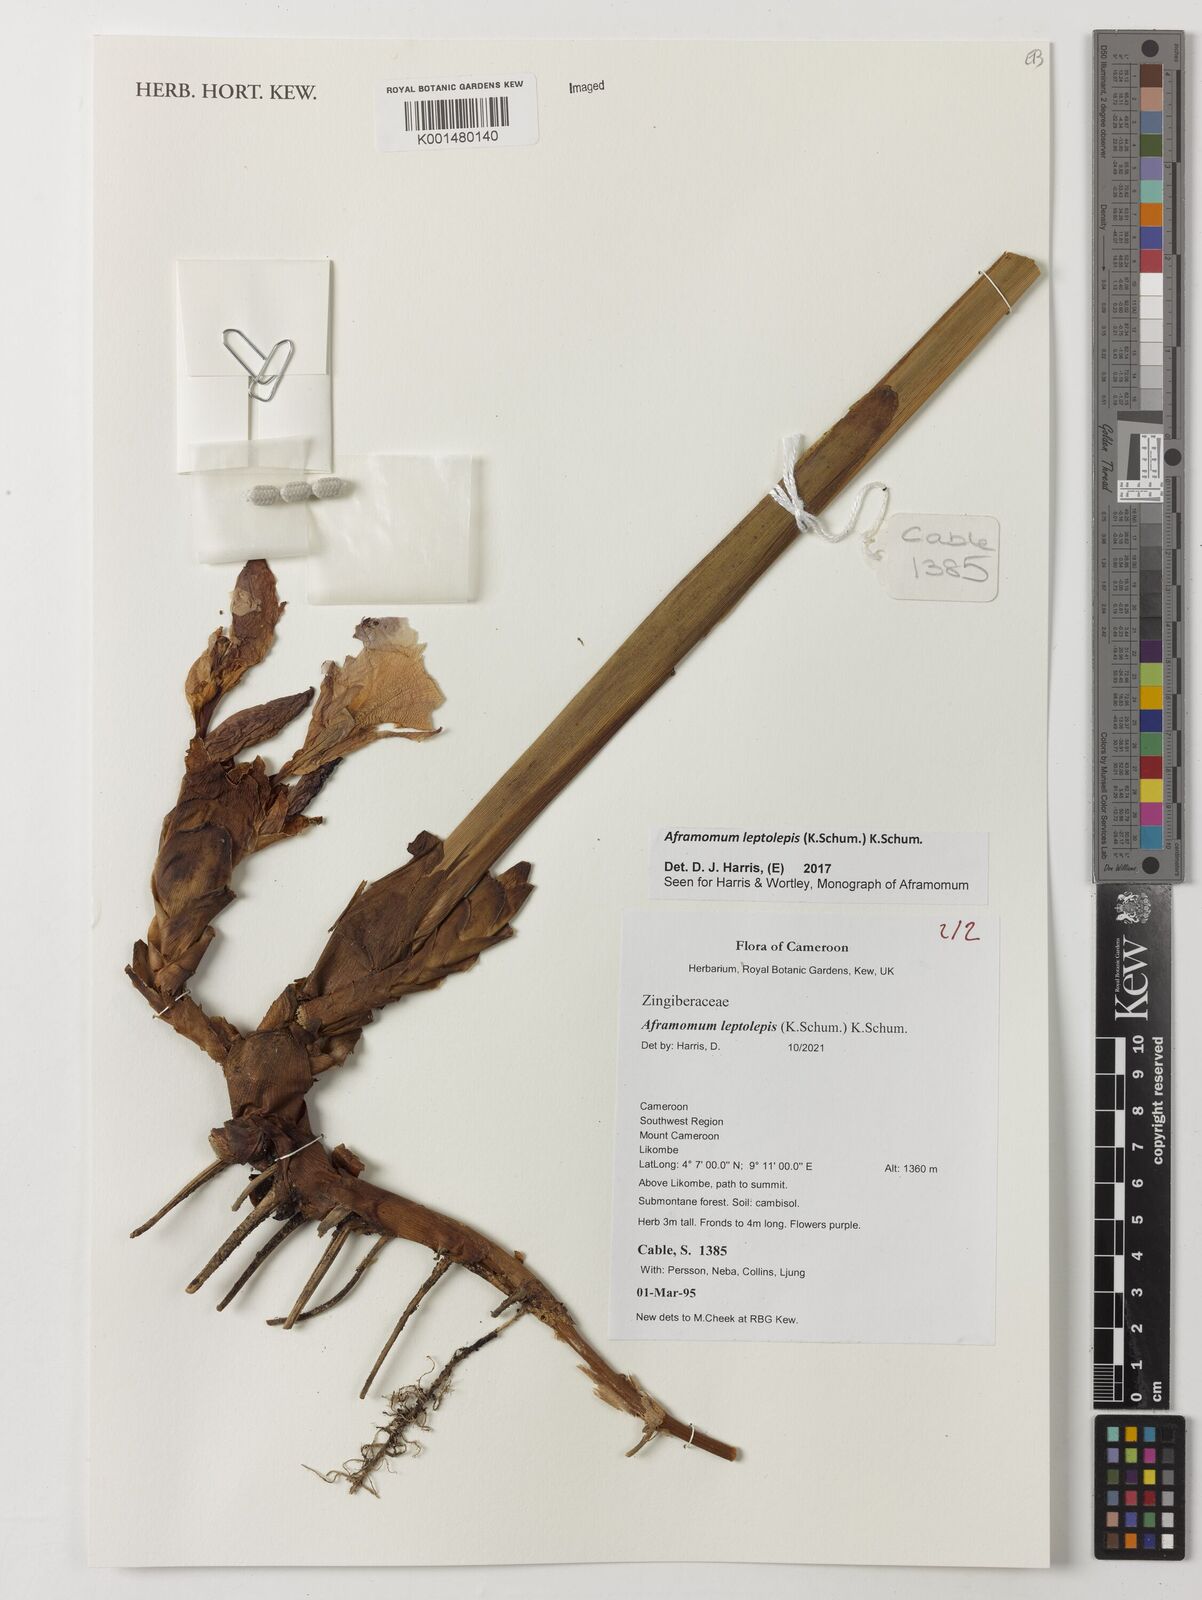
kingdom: Plantae
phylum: Tracheophyta
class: Liliopsida
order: Zingiberales
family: Zingiberaceae
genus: Aframomum
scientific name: Aframomum leptolepis
